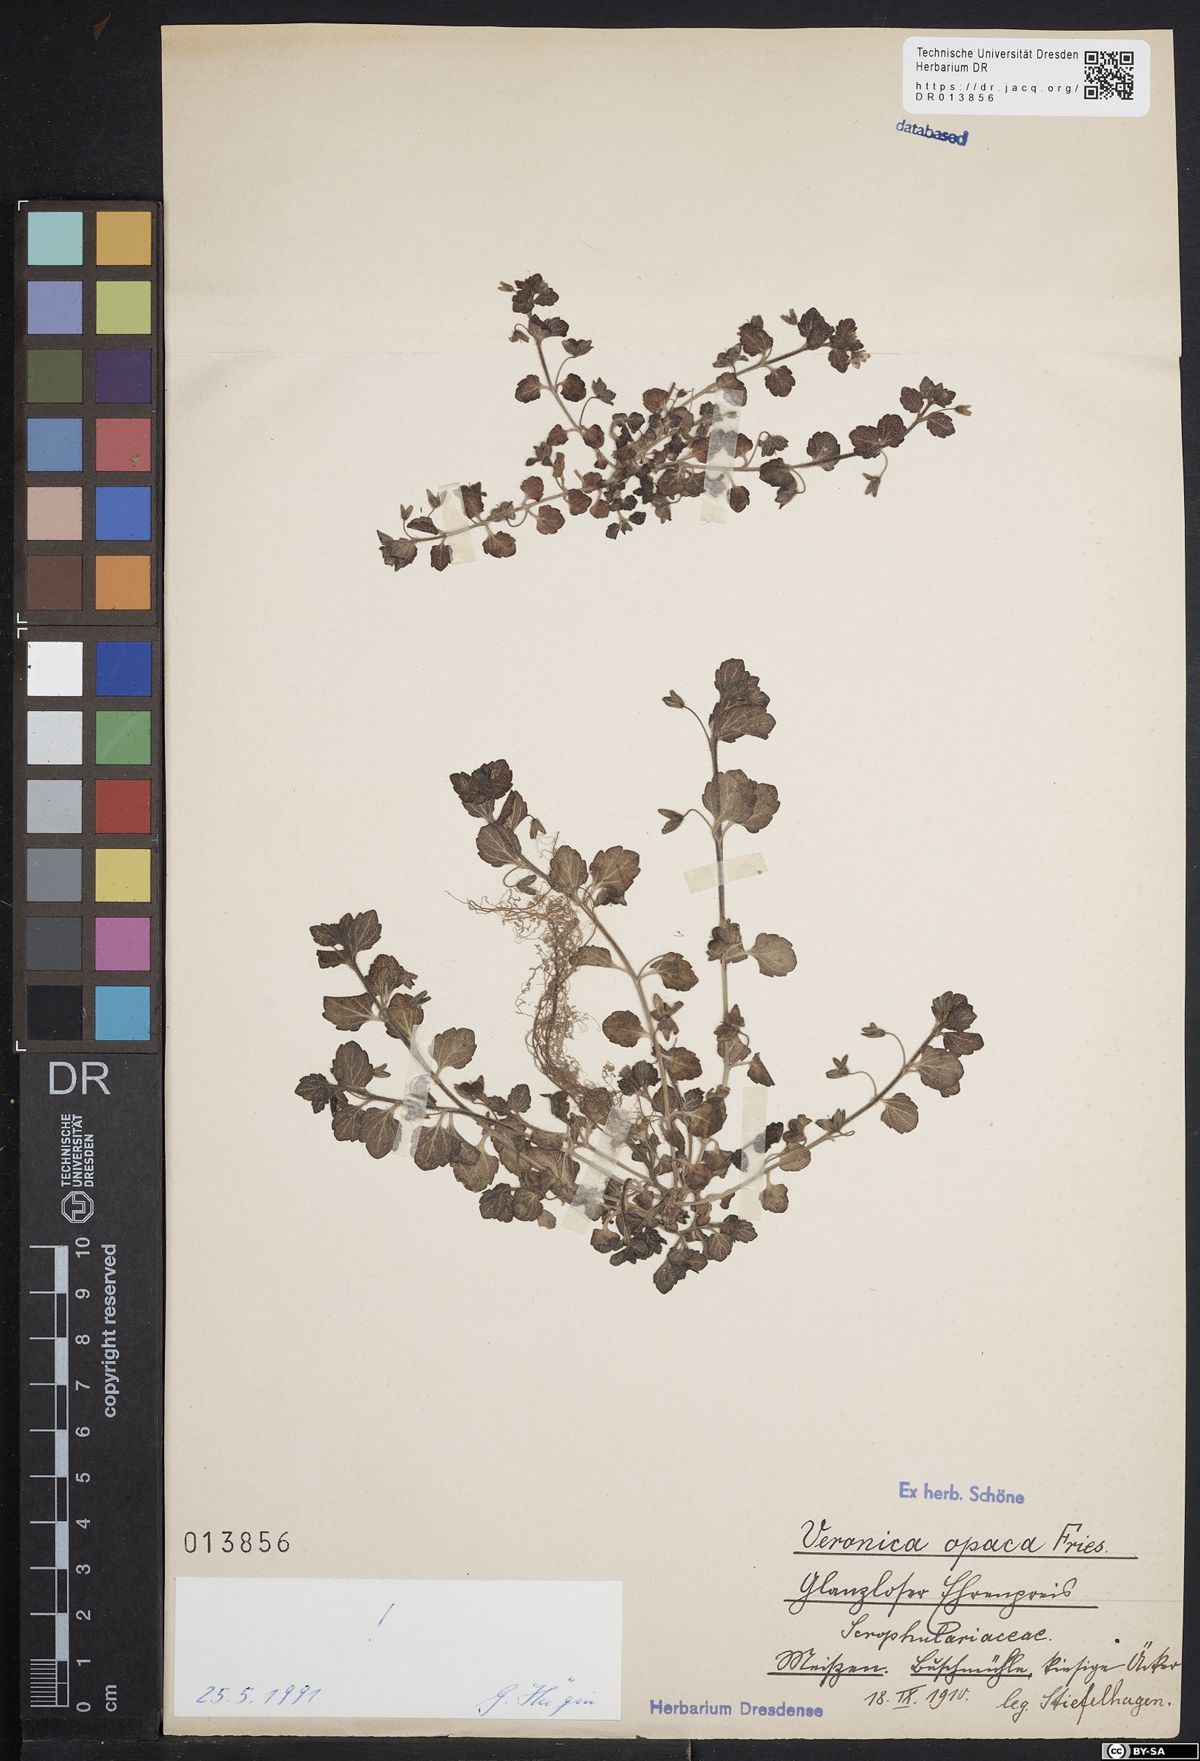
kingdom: Plantae
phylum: Tracheophyta
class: Magnoliopsida
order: Lamiales
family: Plantaginaceae
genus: Veronica
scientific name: Veronica opaca
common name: Dark speedwell
